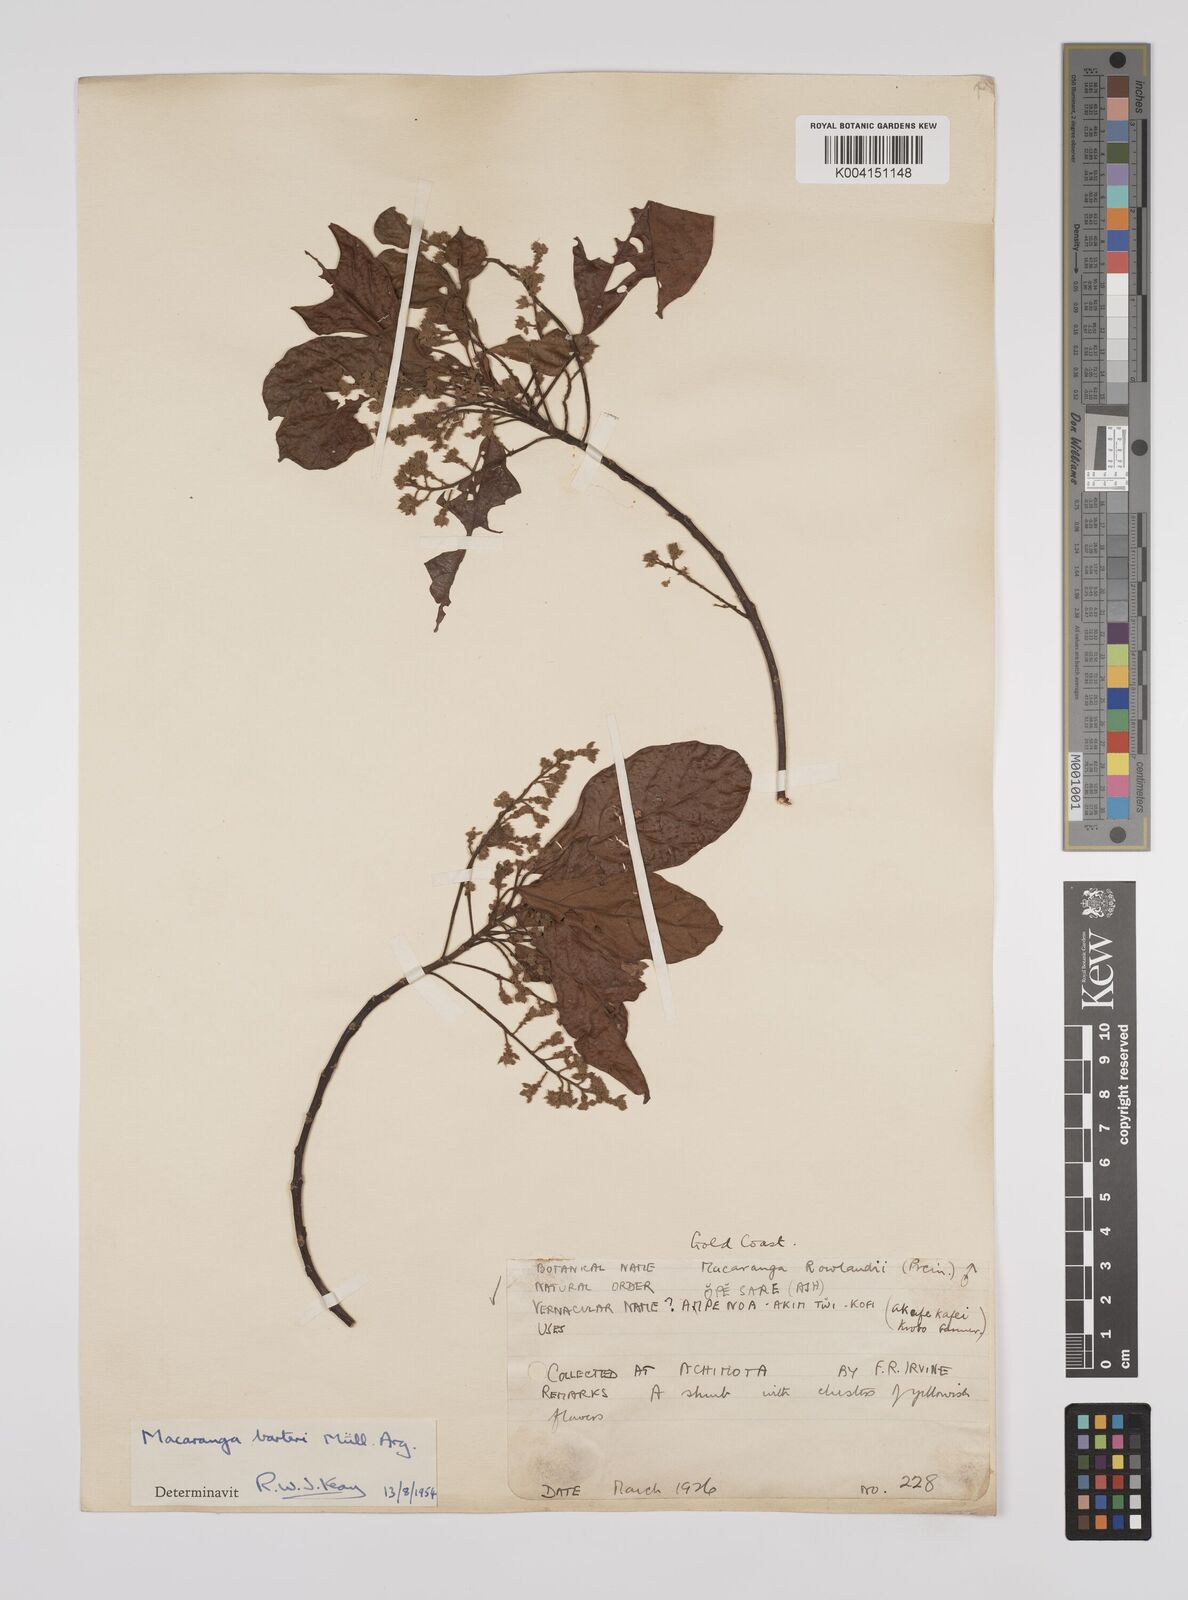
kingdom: Plantae
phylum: Tracheophyta
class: Magnoliopsida
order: Malpighiales
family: Euphorbiaceae
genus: Macaranga
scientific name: Macaranga barteri
